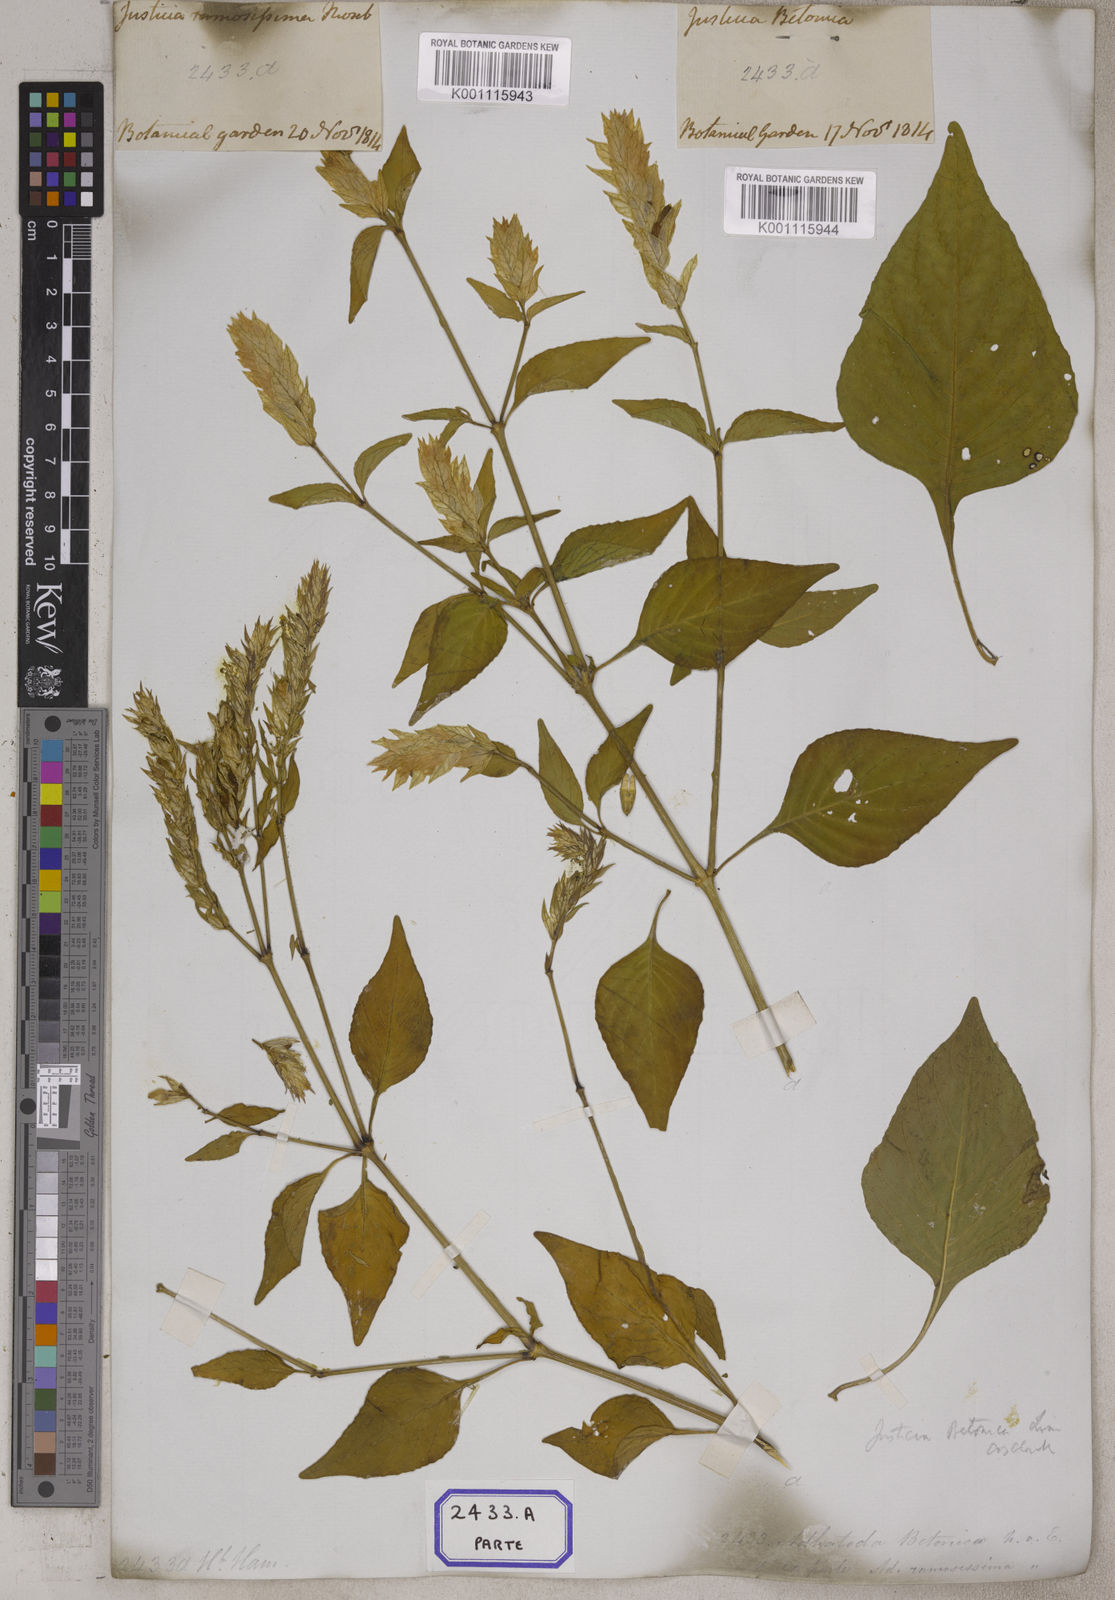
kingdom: Plantae
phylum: Tracheophyta
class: Magnoliopsida
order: Lamiales
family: Acanthaceae
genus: Nicoteba
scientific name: Nicoteba betonica
